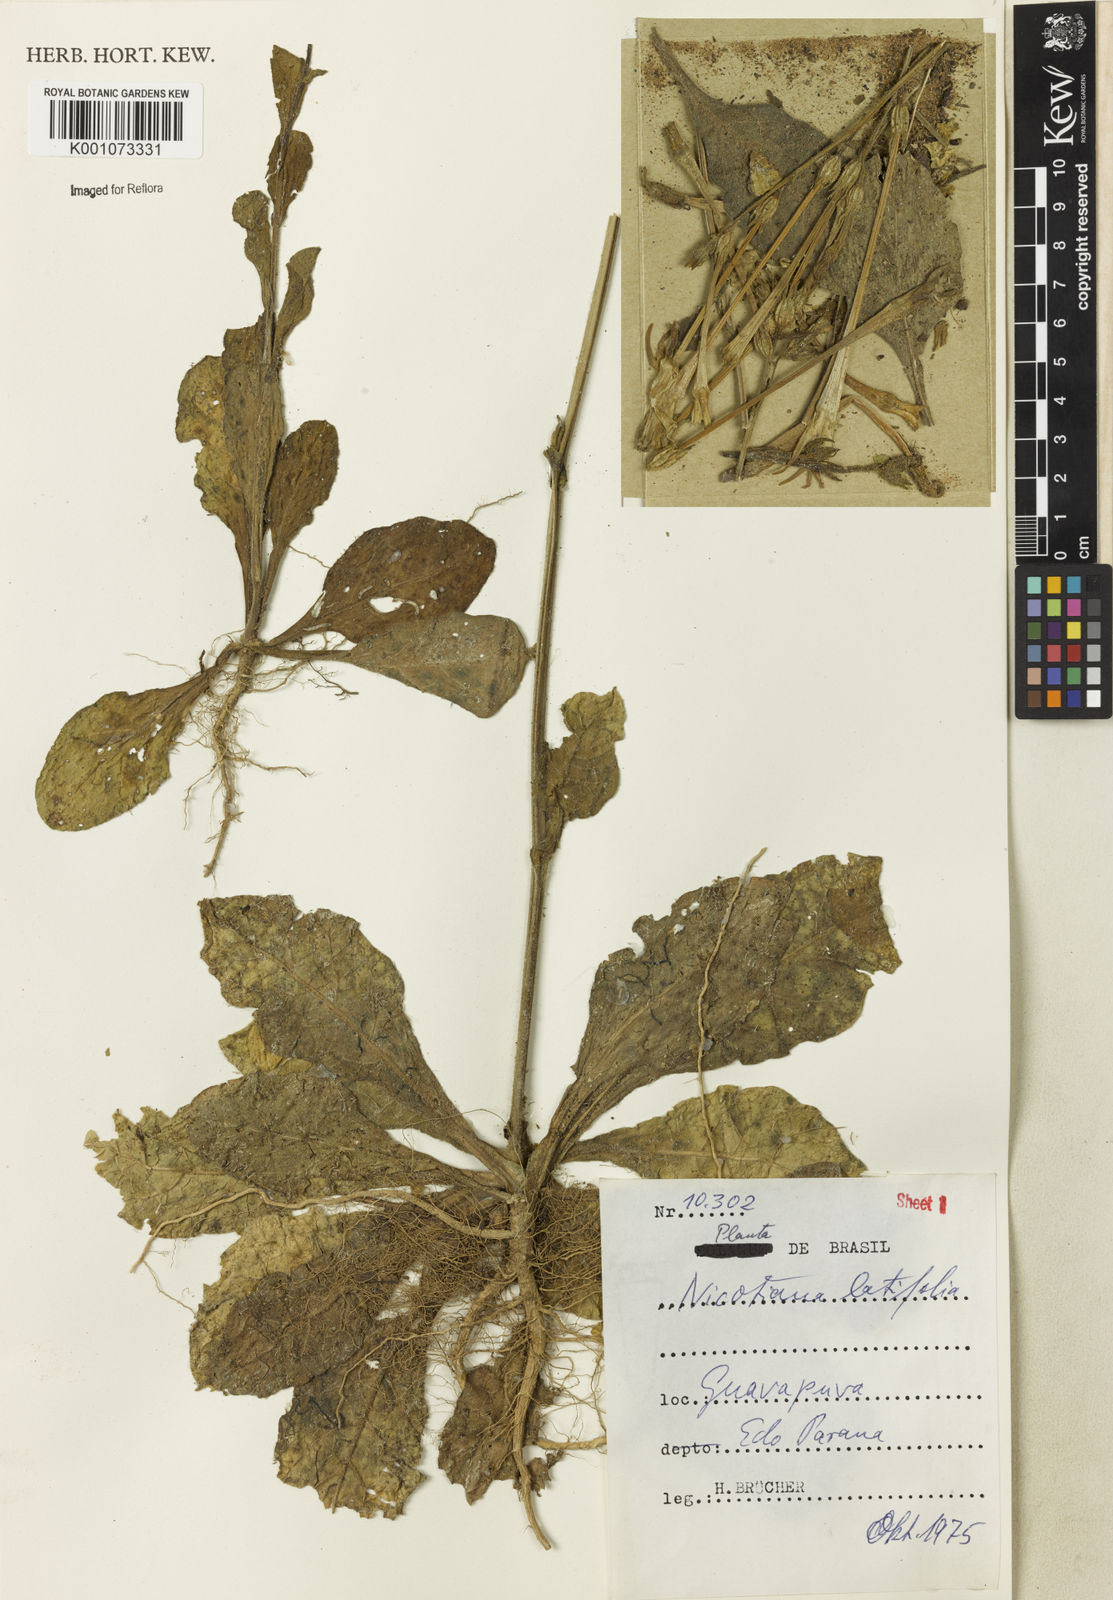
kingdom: Plantae
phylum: Tracheophyta
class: Magnoliopsida
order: Solanales
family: Solanaceae
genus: Nicotiana
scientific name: Nicotiana
